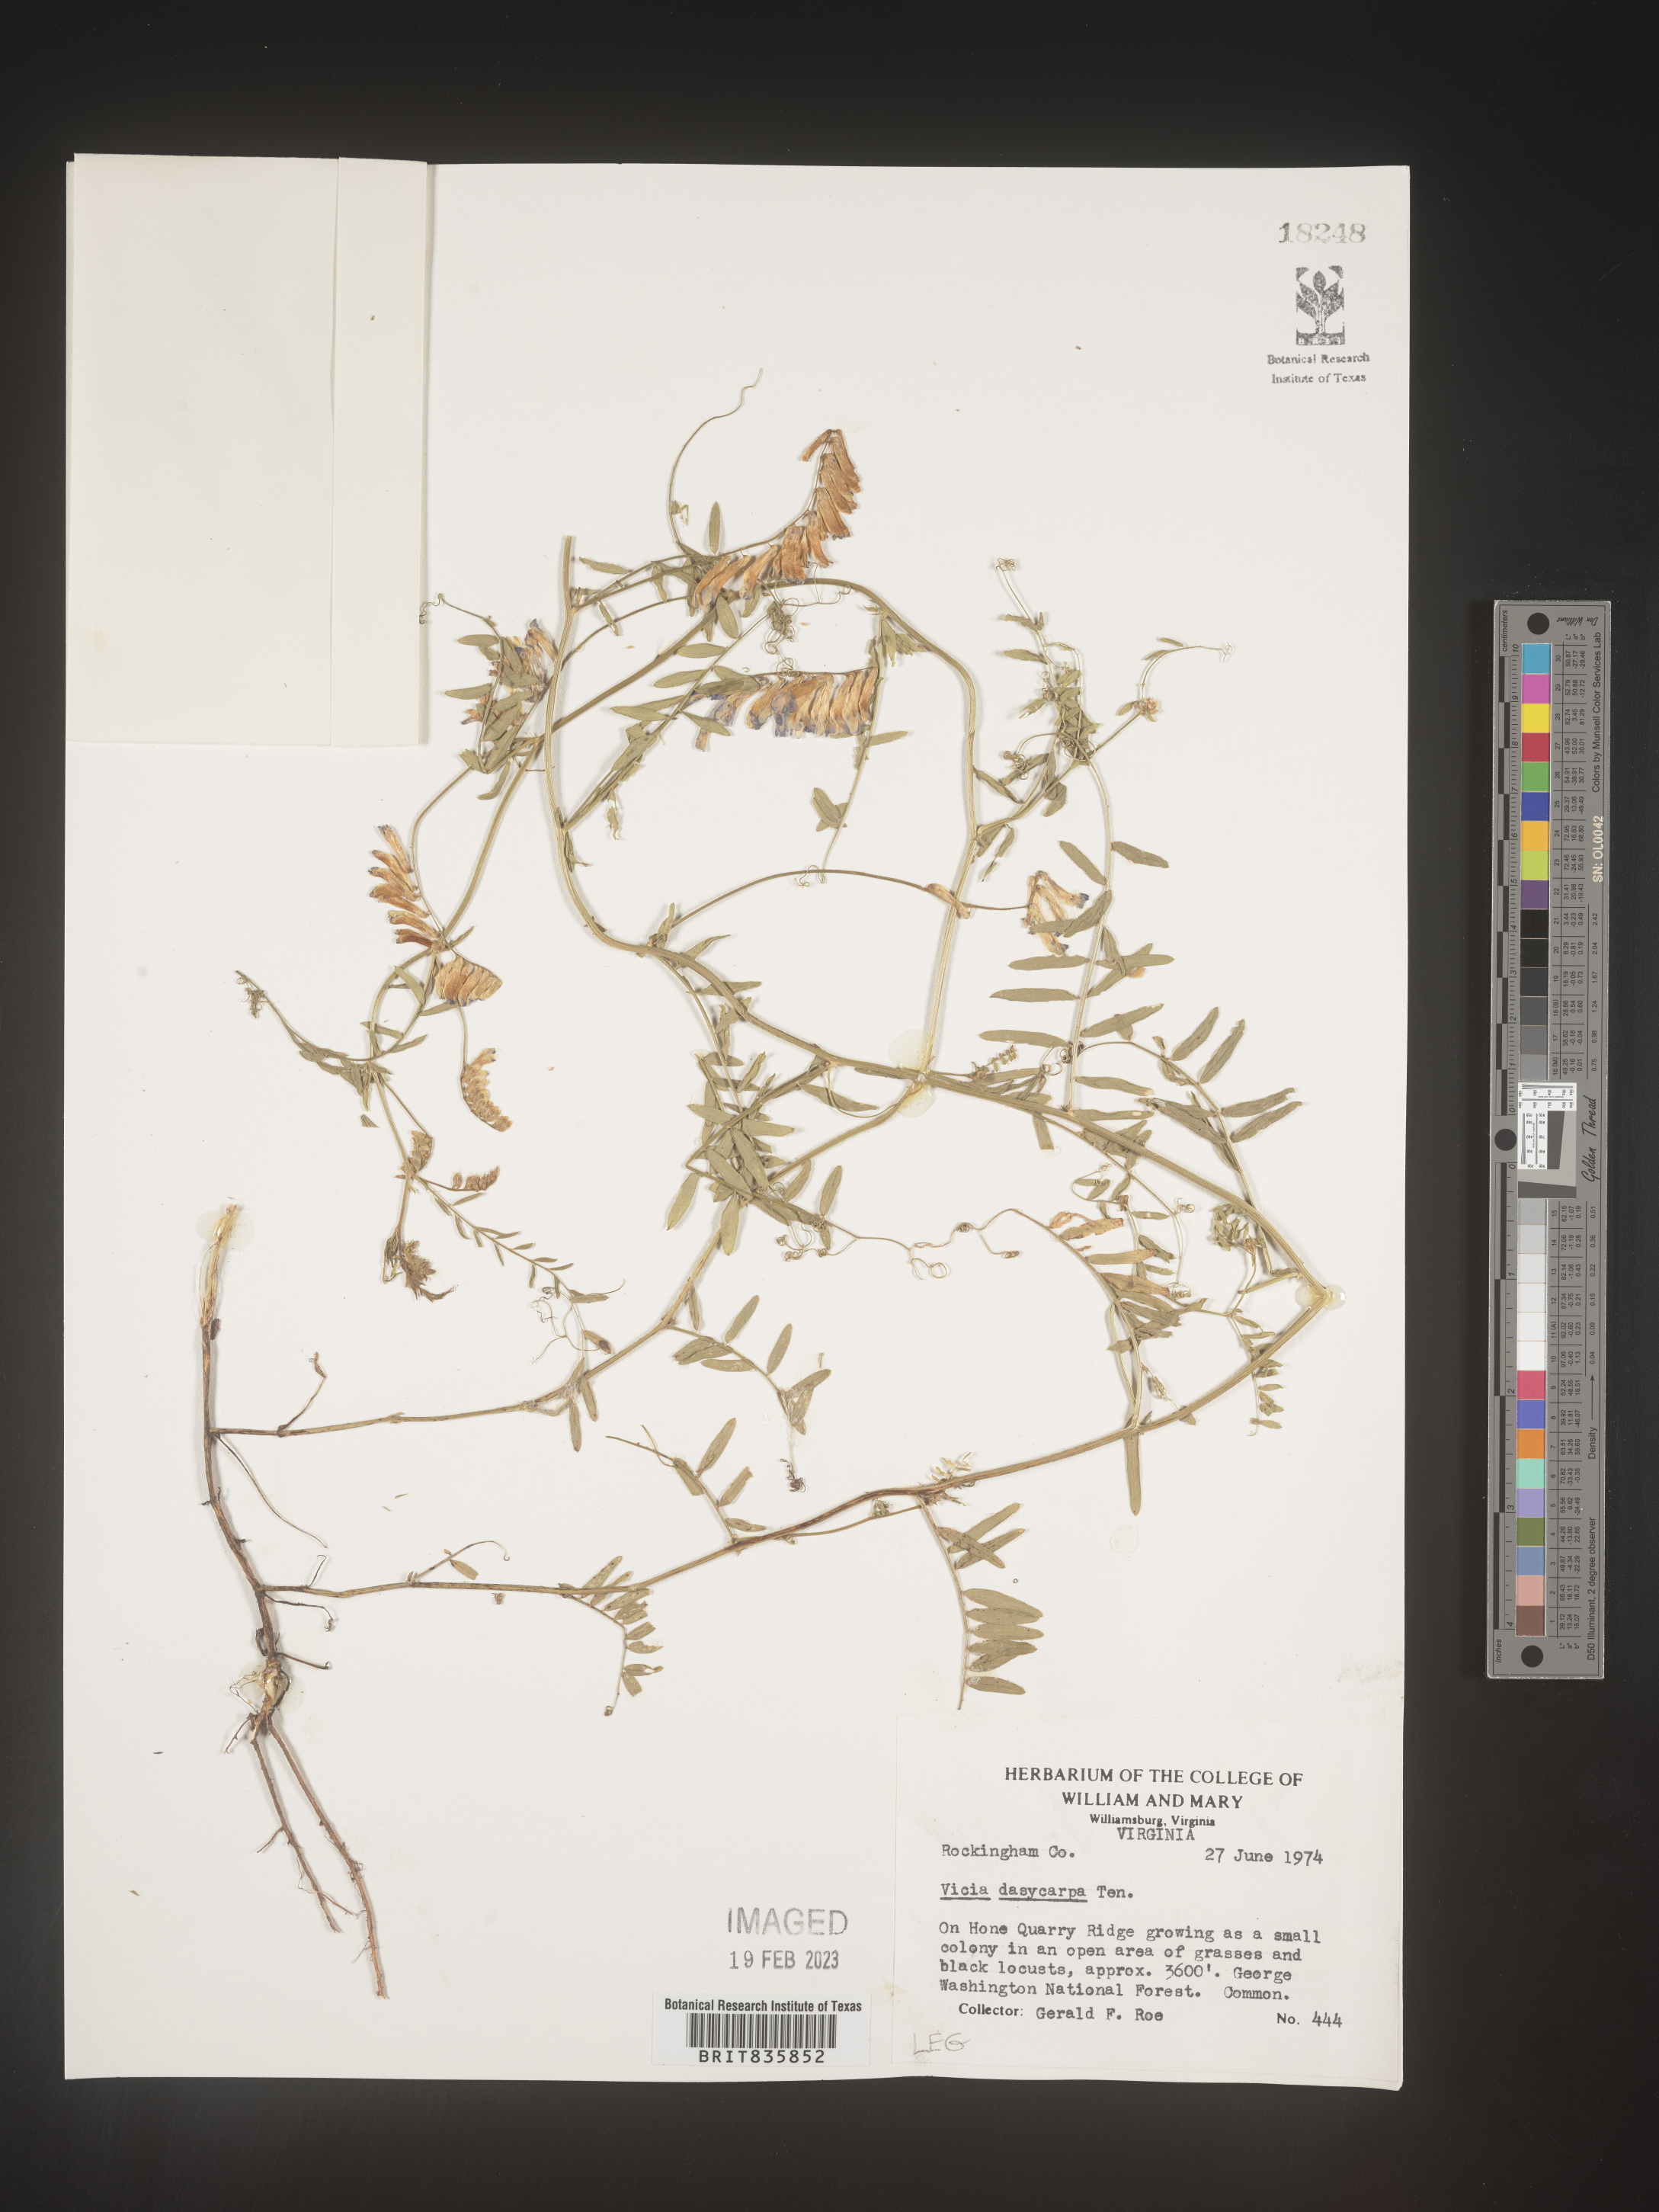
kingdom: Plantae
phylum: Tracheophyta
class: Magnoliopsida
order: Fabales
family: Fabaceae
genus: Vicia
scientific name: Vicia villosa
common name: Fodder vetch
